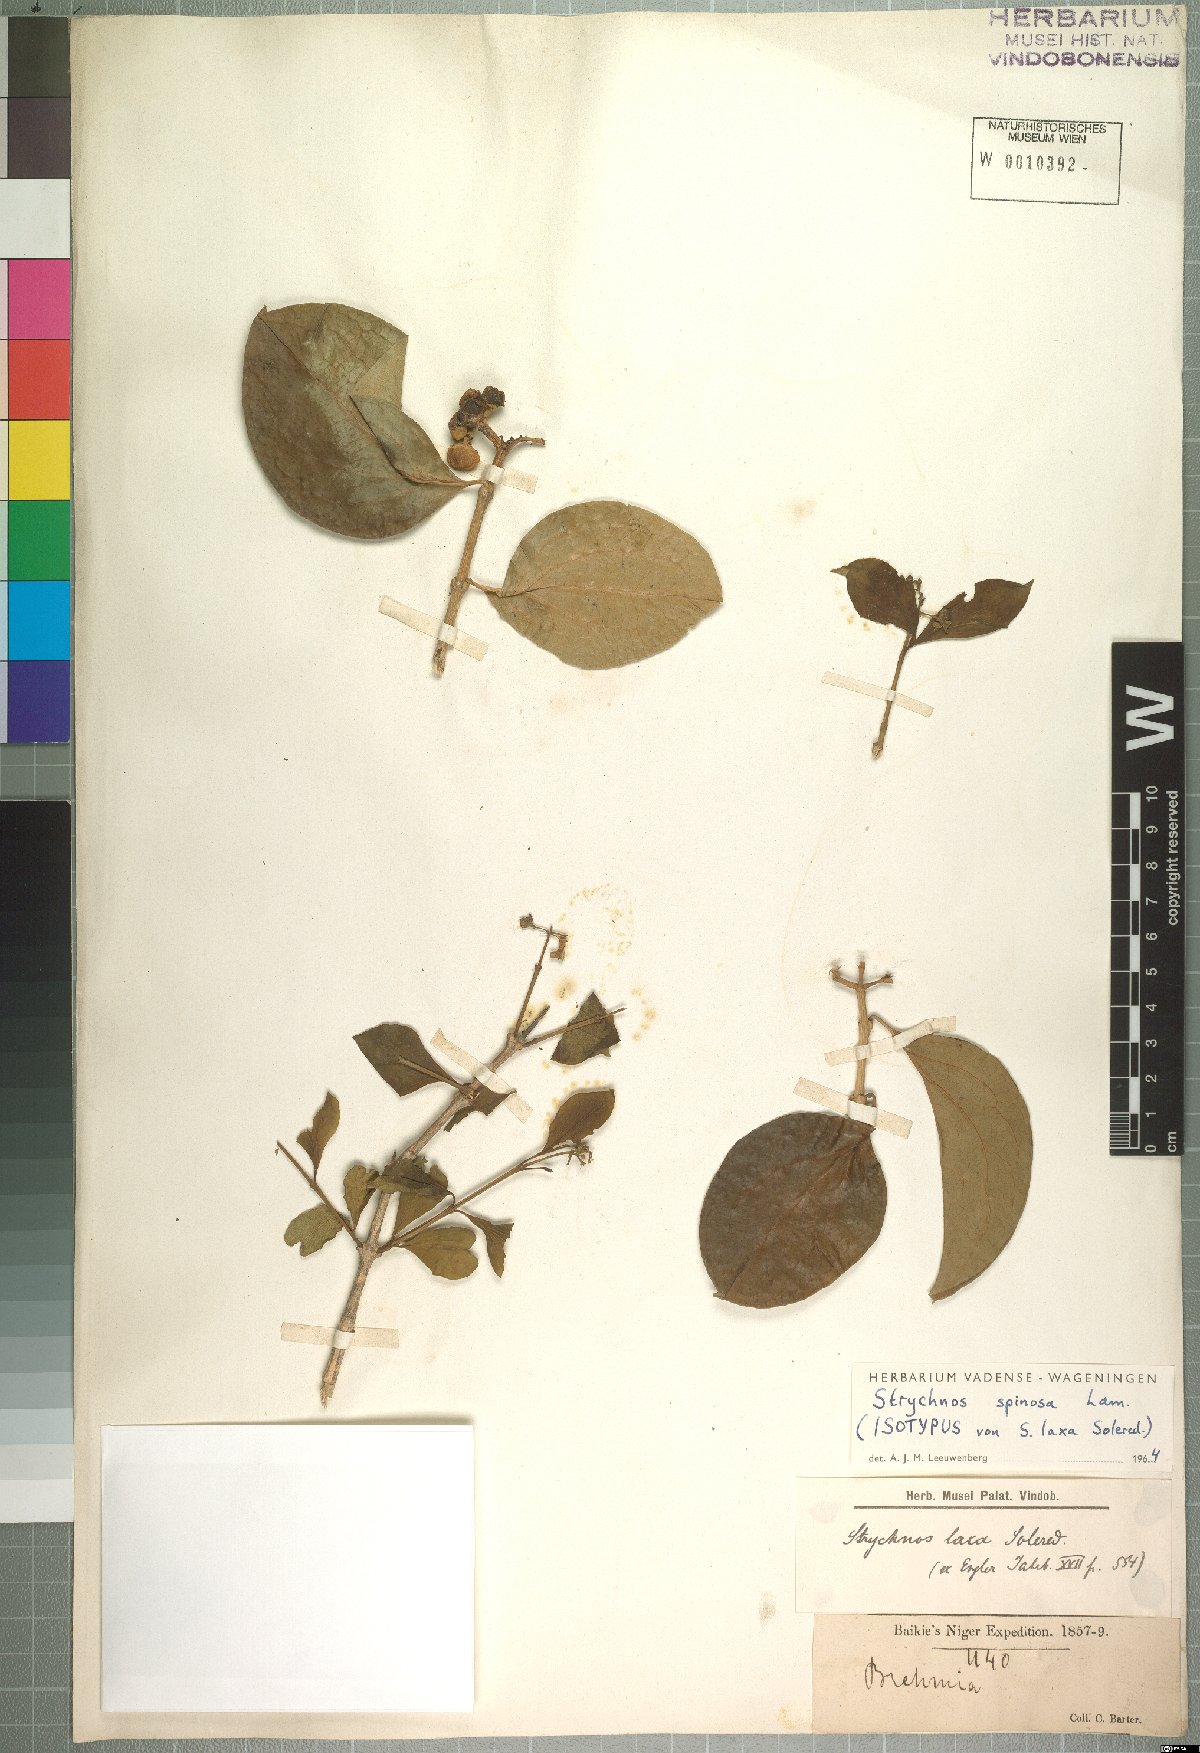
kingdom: Plantae
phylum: Tracheophyta
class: Magnoliopsida
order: Gentianales
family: Loganiaceae
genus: Strychnos
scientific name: Strychnos spinosa
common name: Natal orange
